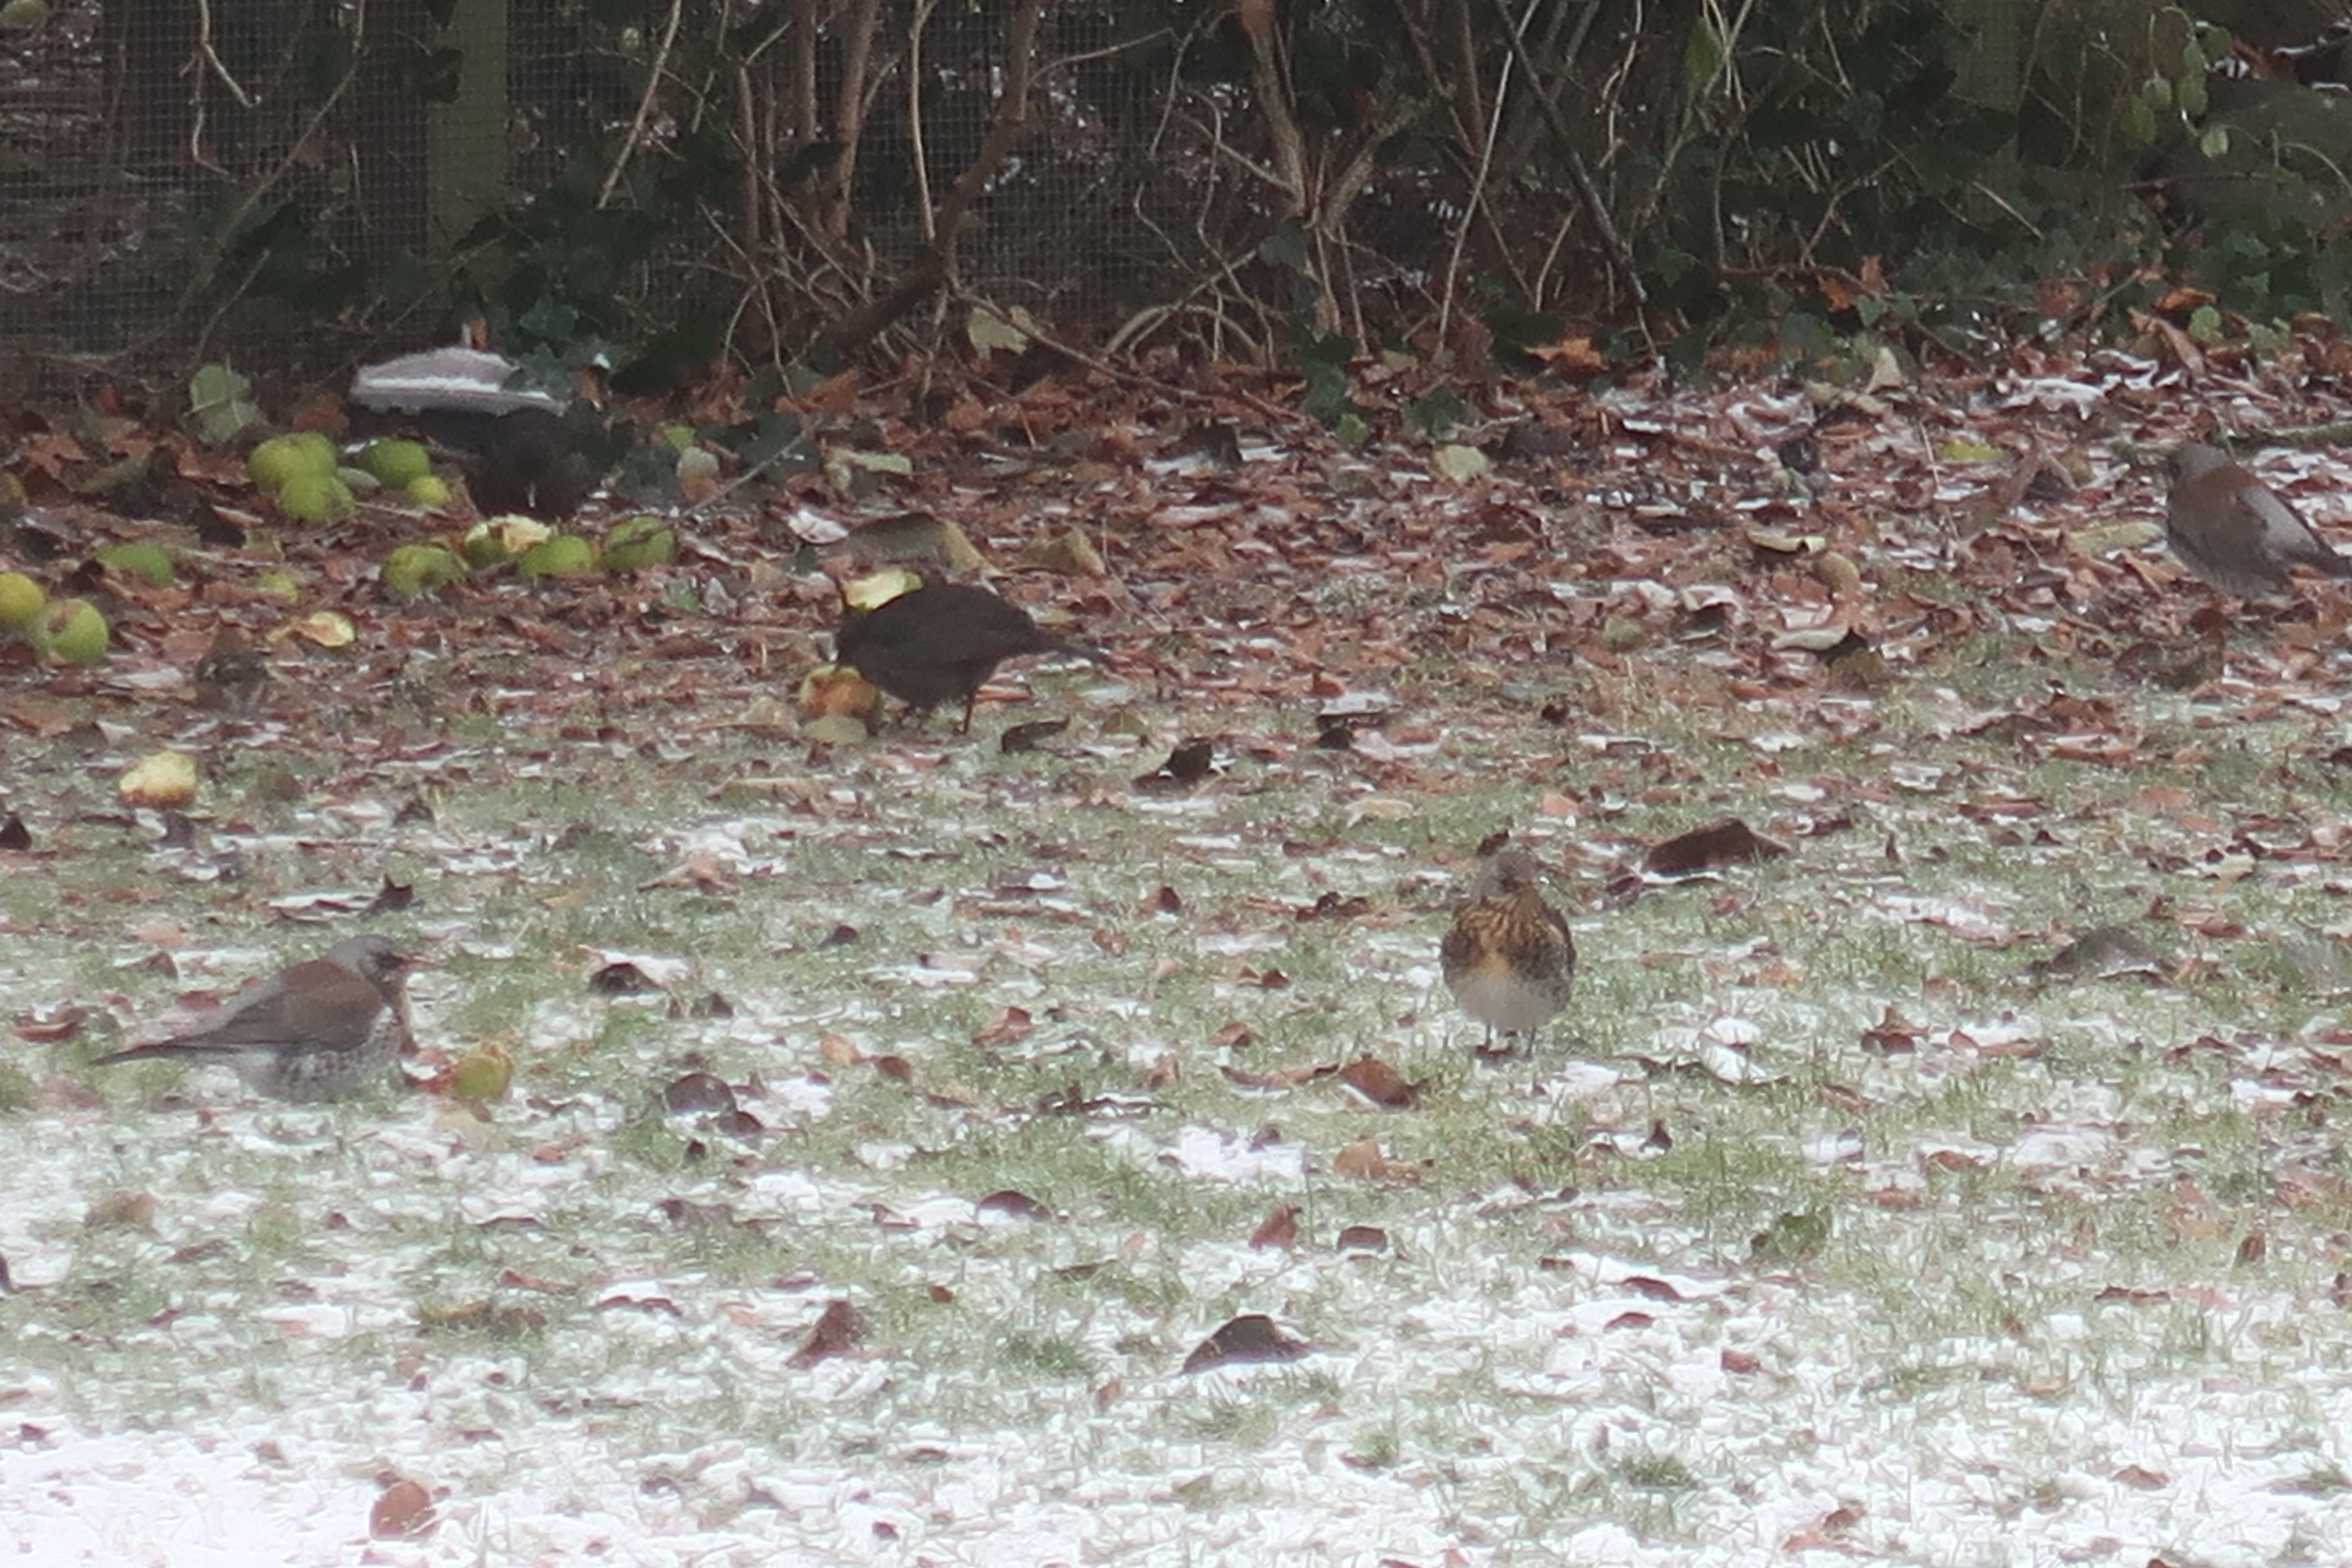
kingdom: Animalia
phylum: Chordata
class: Aves
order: Passeriformes
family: Turdidae
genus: Turdus
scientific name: Turdus pilaris
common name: Sjagger
